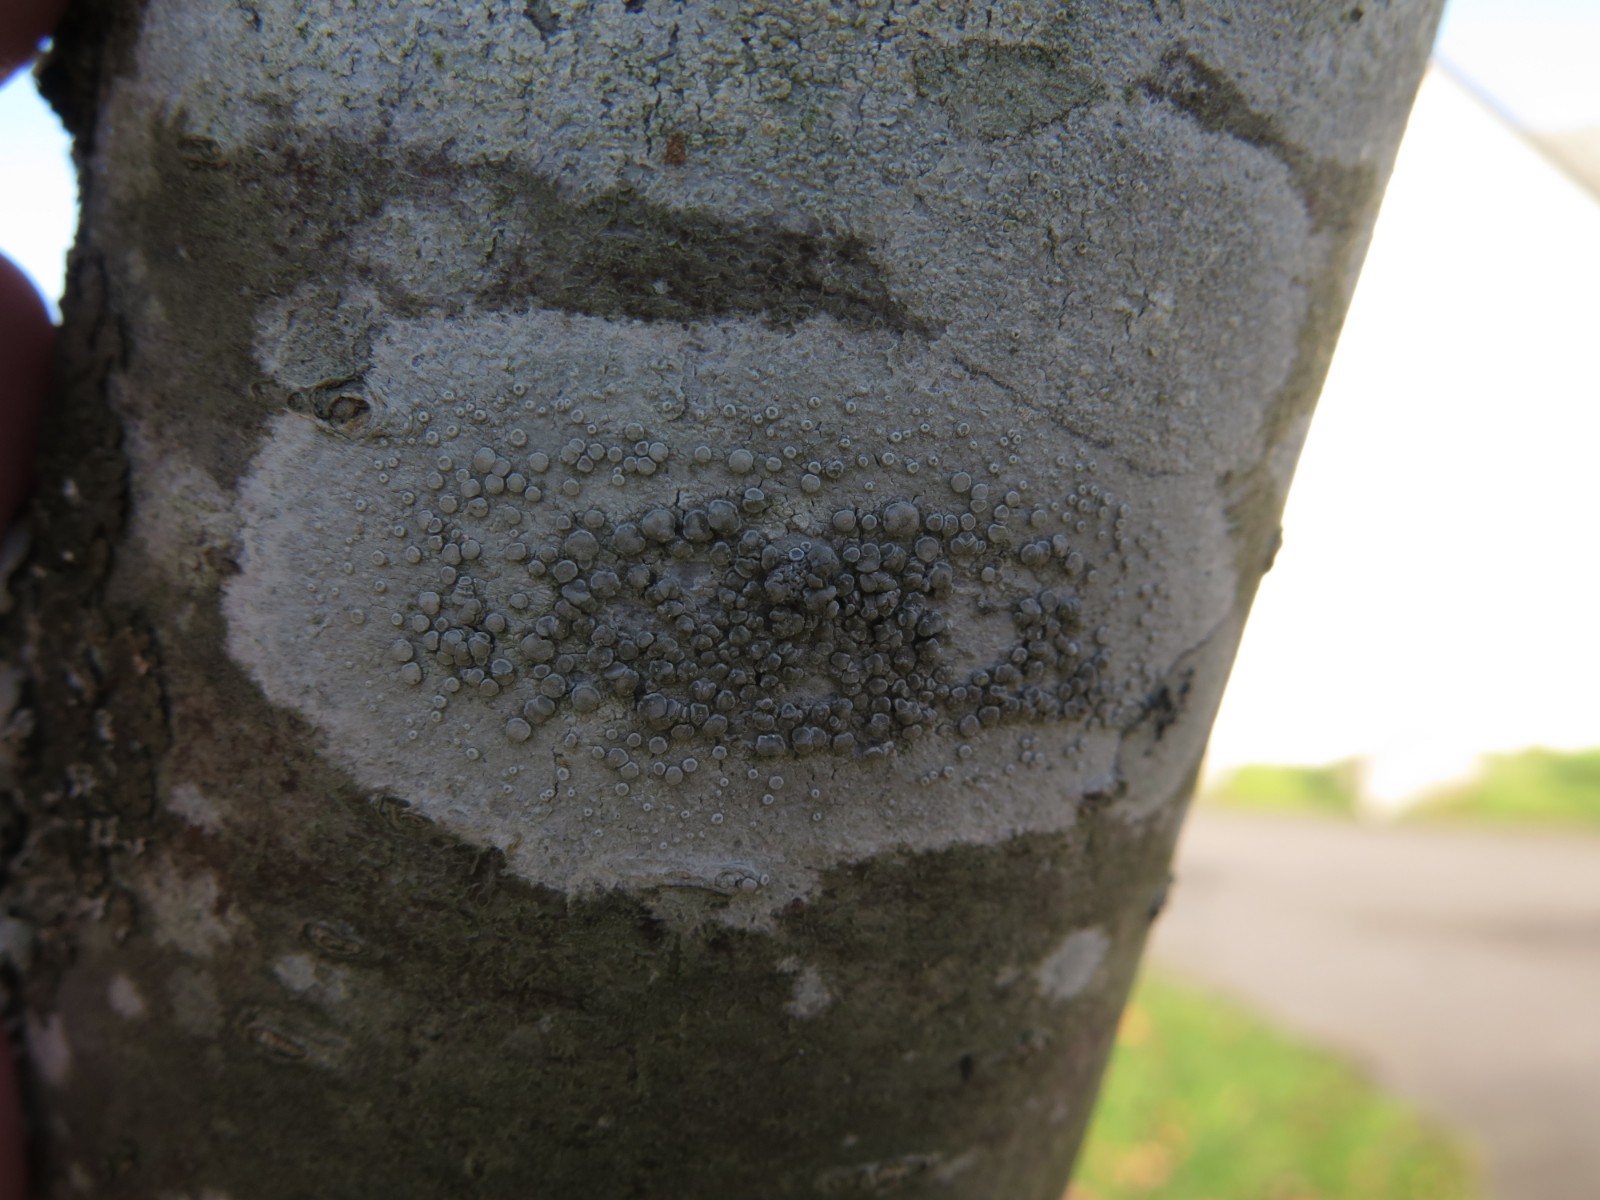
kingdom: Fungi
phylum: Ascomycota
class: Lecanoromycetes
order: Lecanorales
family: Lecanoraceae
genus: Glaucomaria
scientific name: Glaucomaria carpinea
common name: hviddugget kantskivelav
